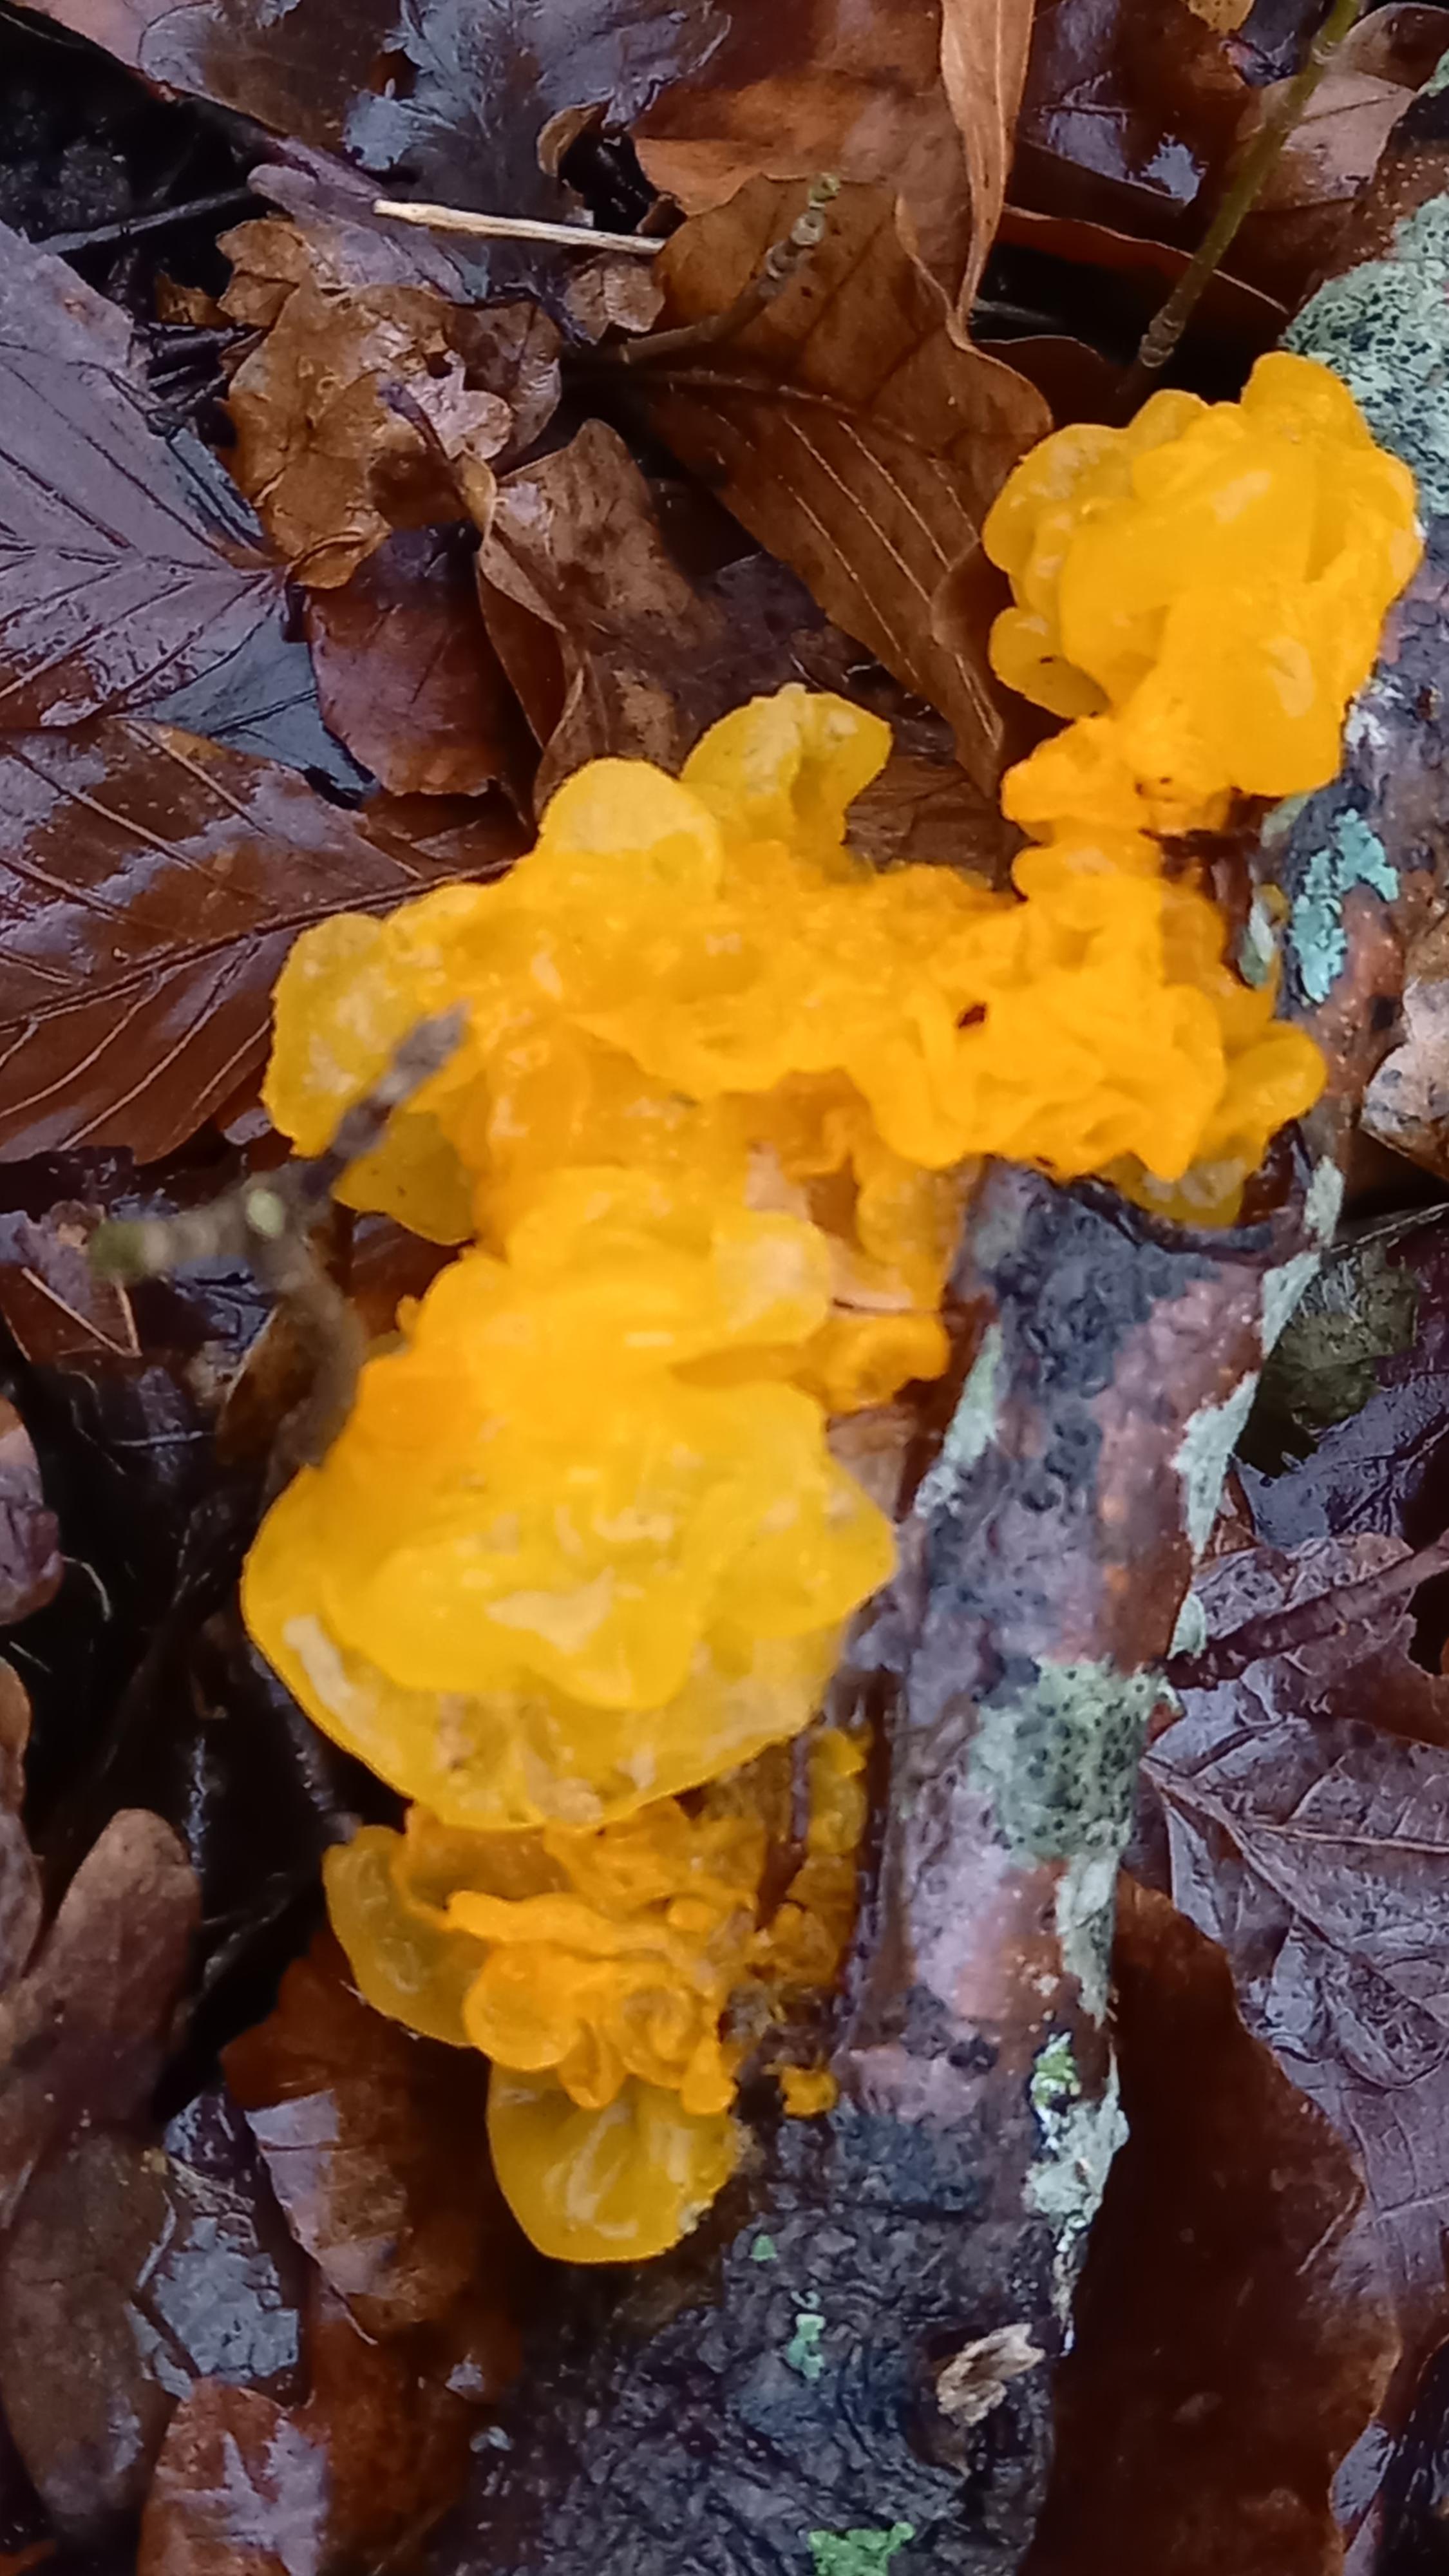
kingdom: Fungi
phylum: Basidiomycota
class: Tremellomycetes
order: Tremellales
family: Tremellaceae
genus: Tremella
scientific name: Tremella mesenterica
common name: gul bævresvamp
